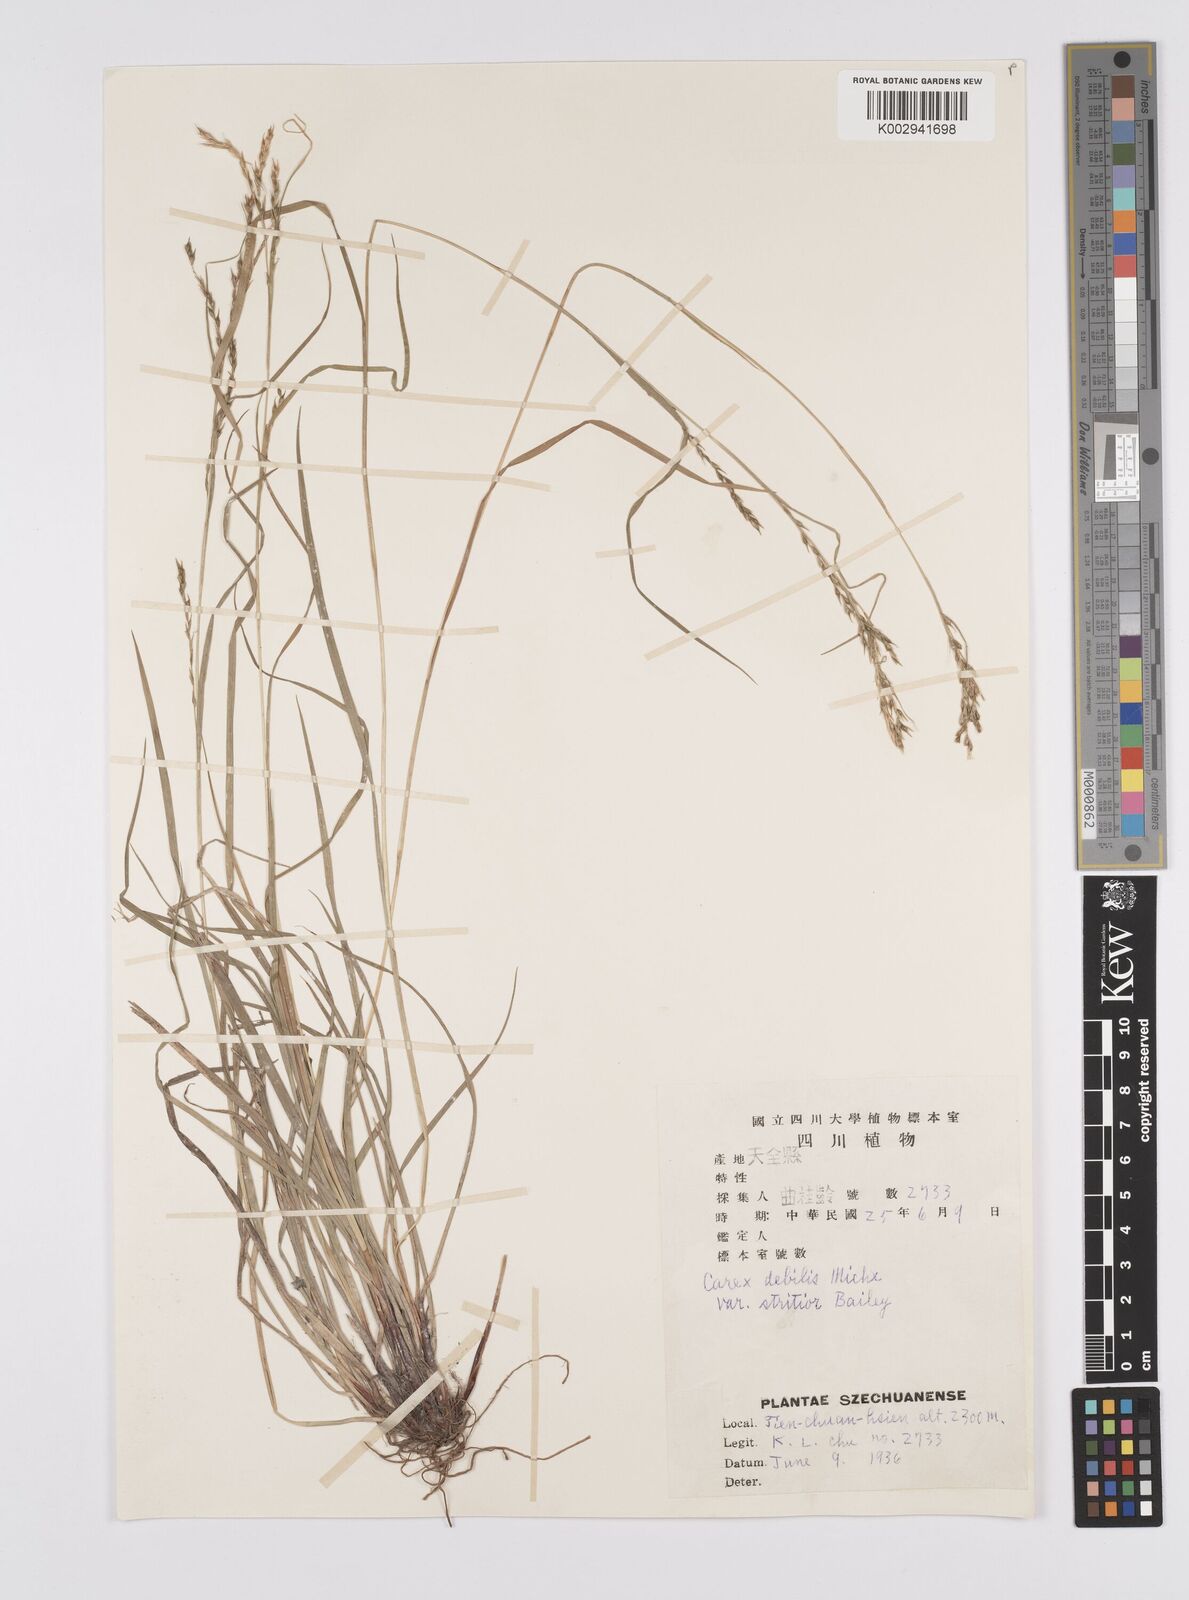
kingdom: Plantae
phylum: Tracheophyta
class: Liliopsida
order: Poales
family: Cyperaceae
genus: Carex
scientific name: Carex finitima
